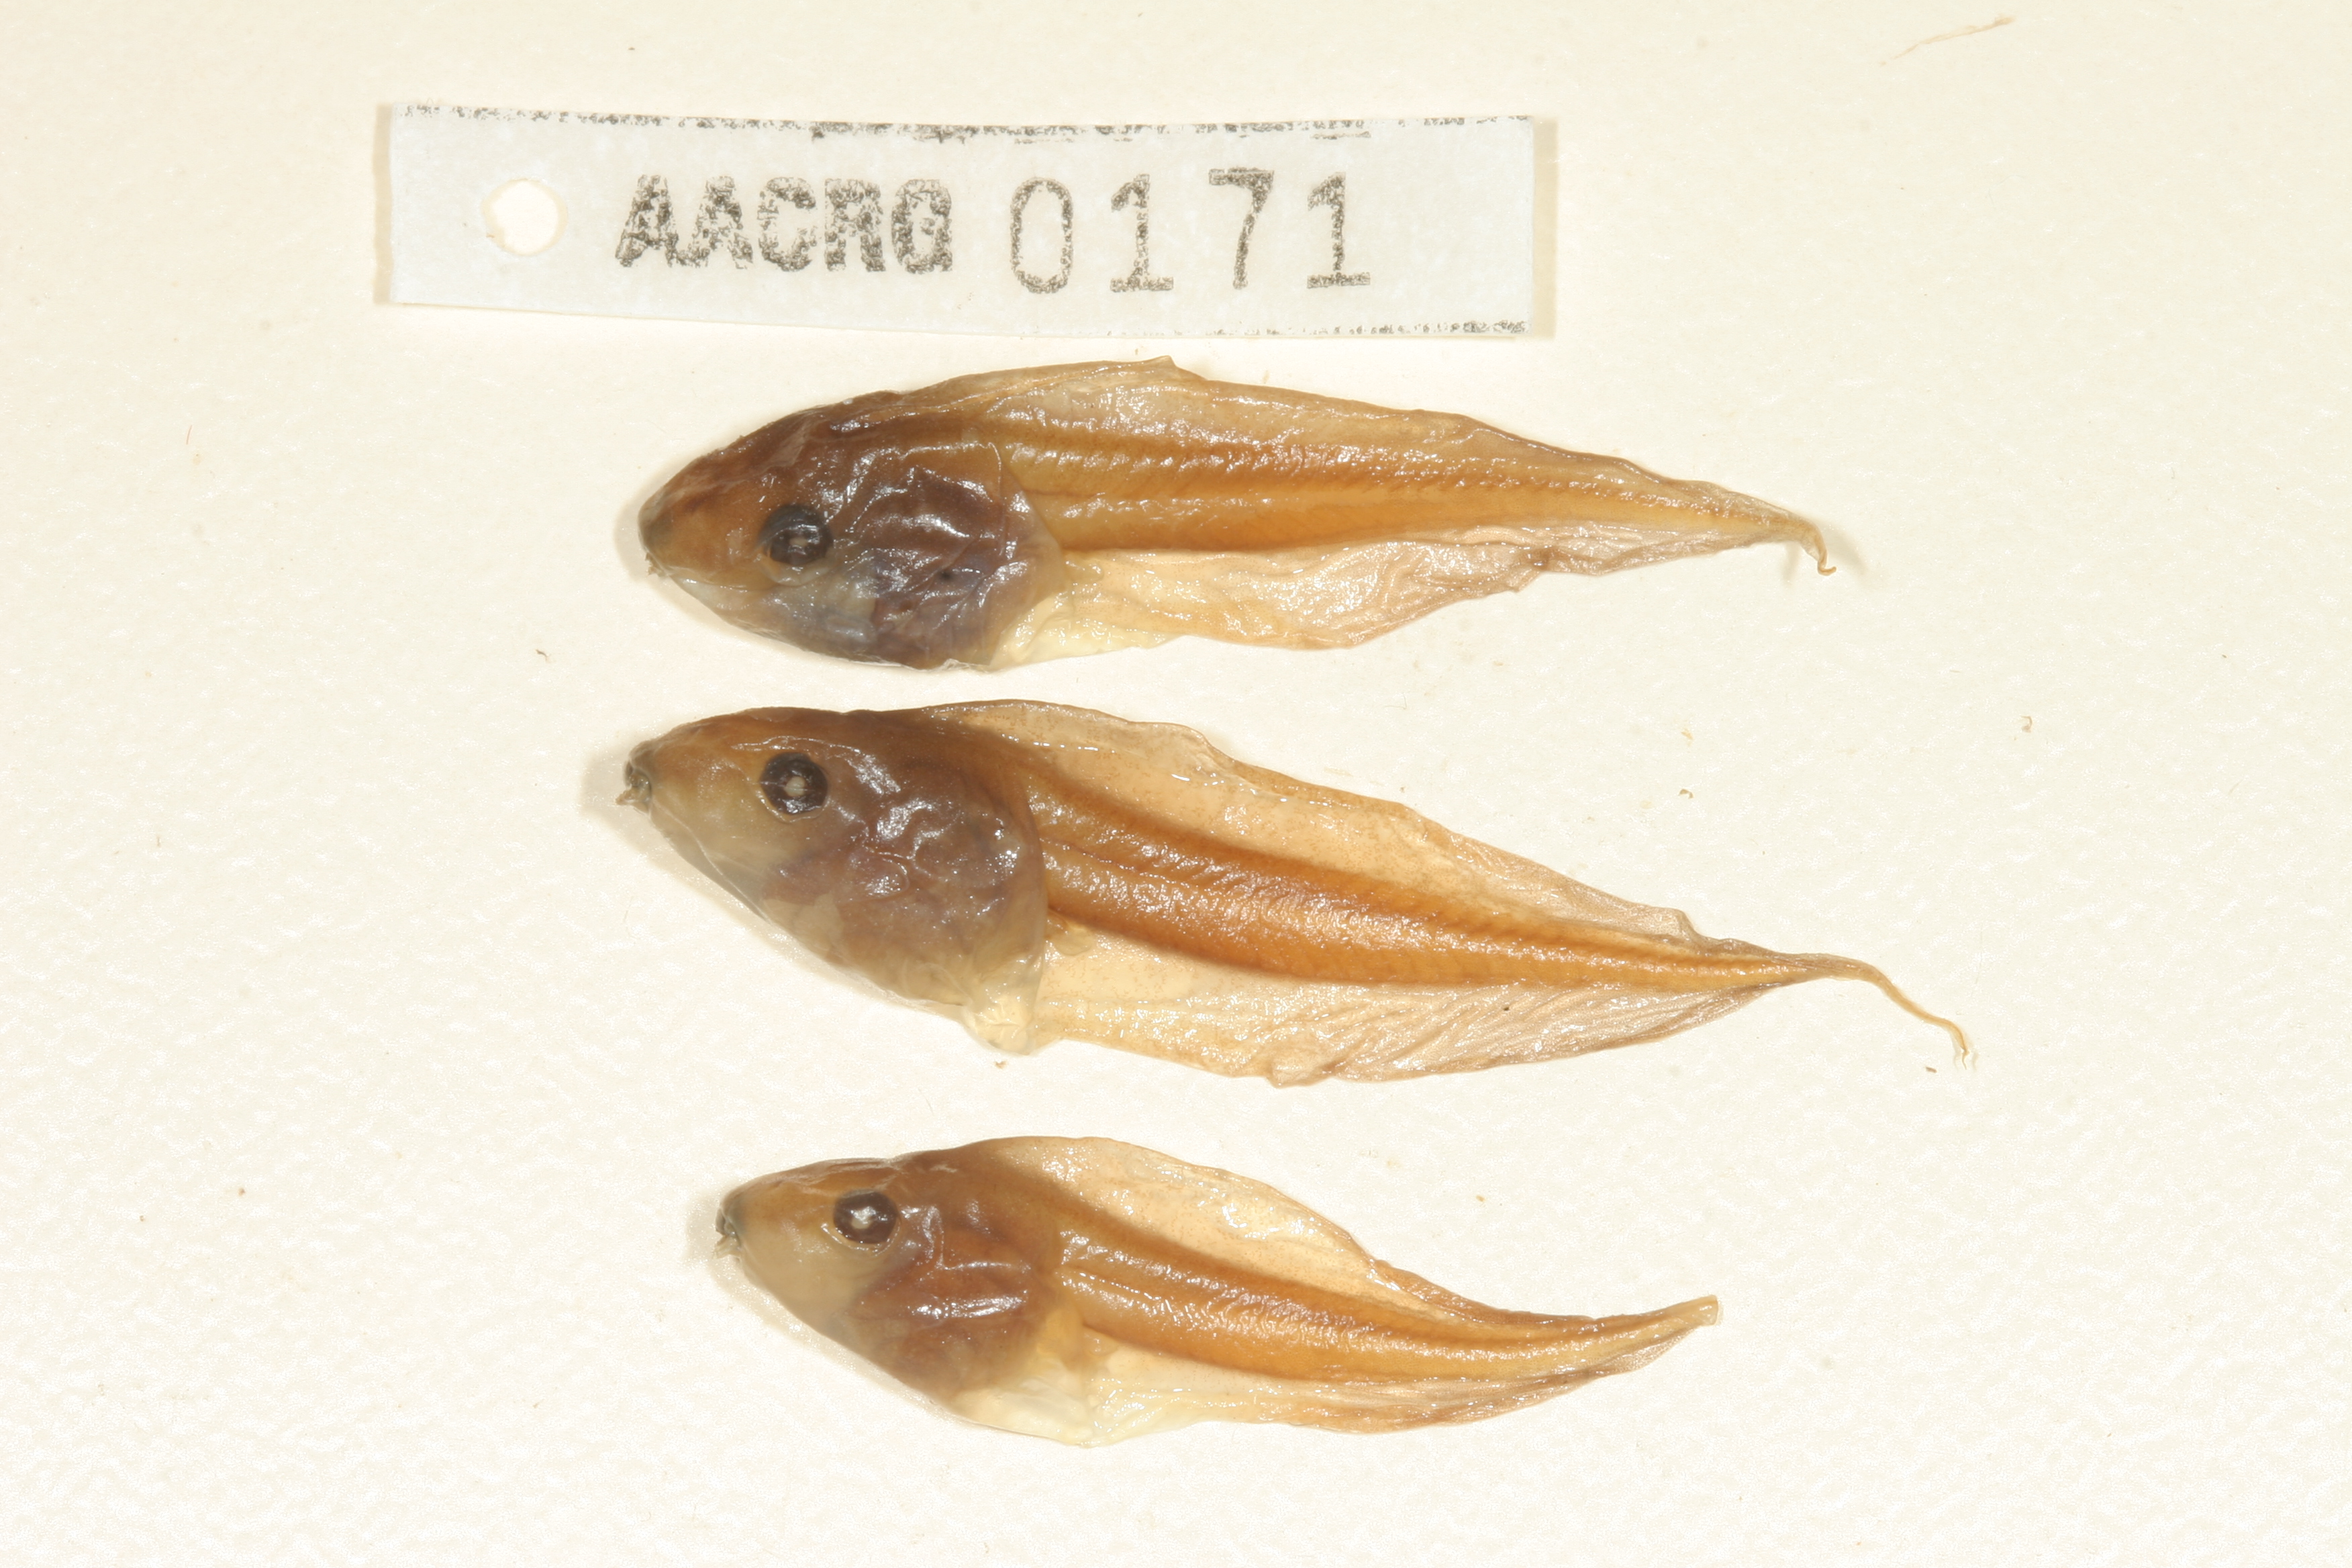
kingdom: Animalia
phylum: Chordata
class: Amphibia
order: Anura
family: Hyperoliidae
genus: Semnodactylus
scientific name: Semnodactylus wealii
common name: Weal's frog
